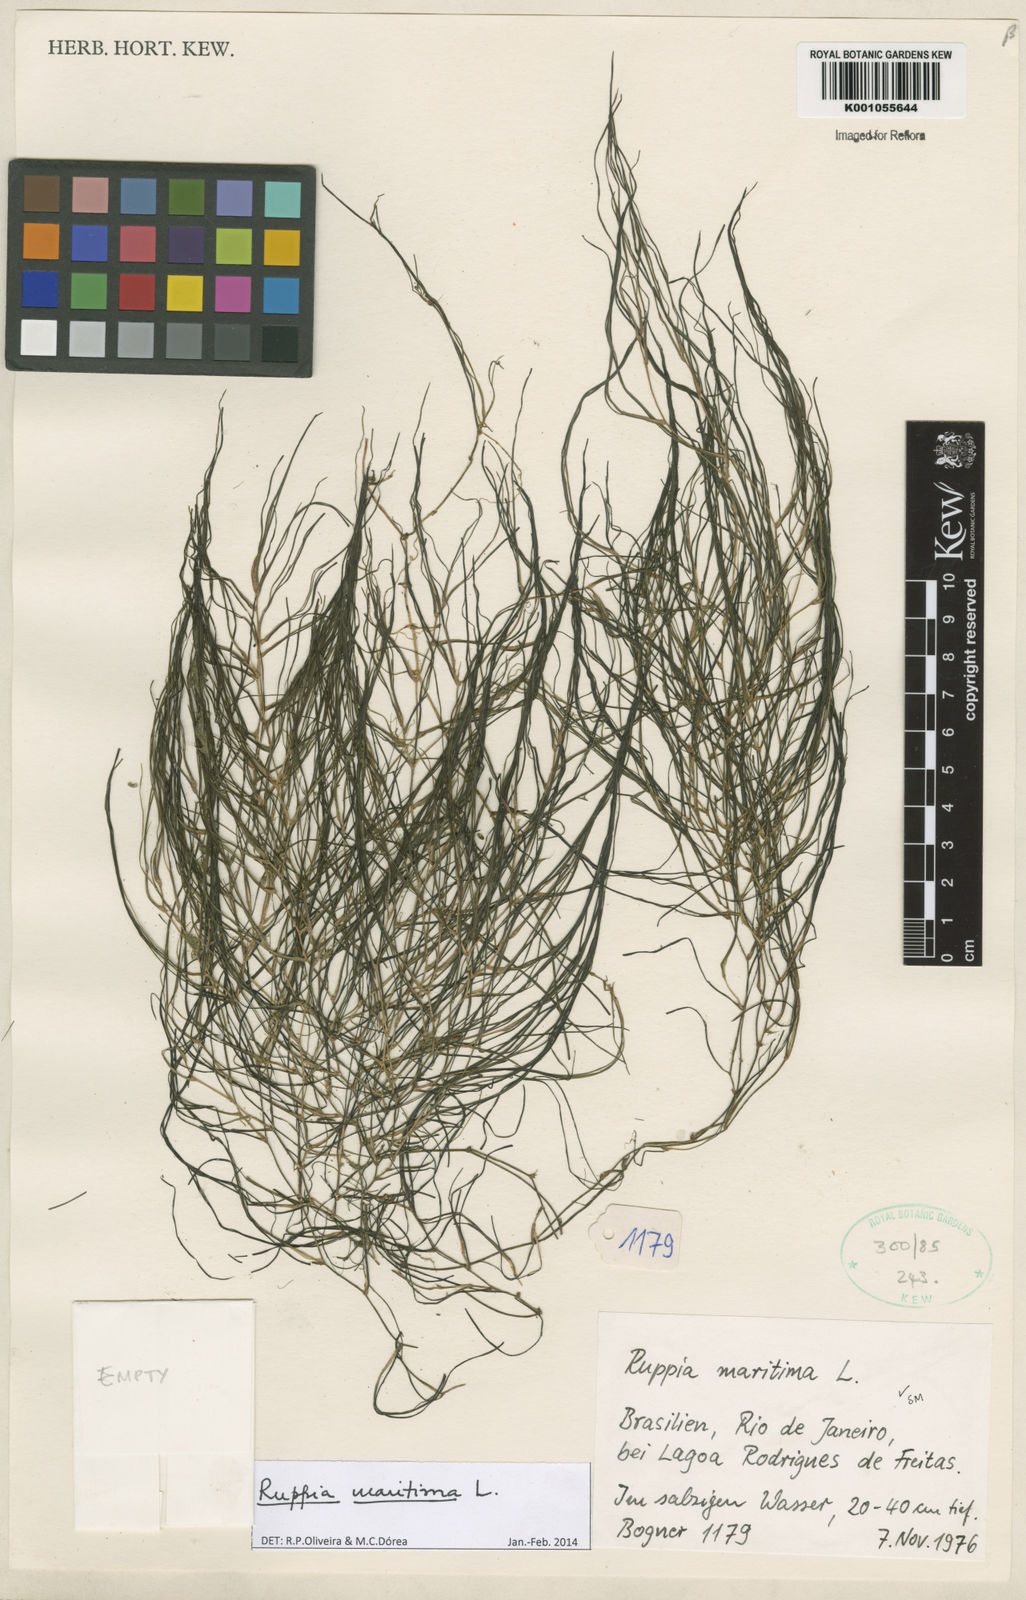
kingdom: Plantae
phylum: Tracheophyta
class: Liliopsida
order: Alismatales
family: Ruppiaceae
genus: Ruppia
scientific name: Ruppia maritima
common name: Beaked tasselweed
